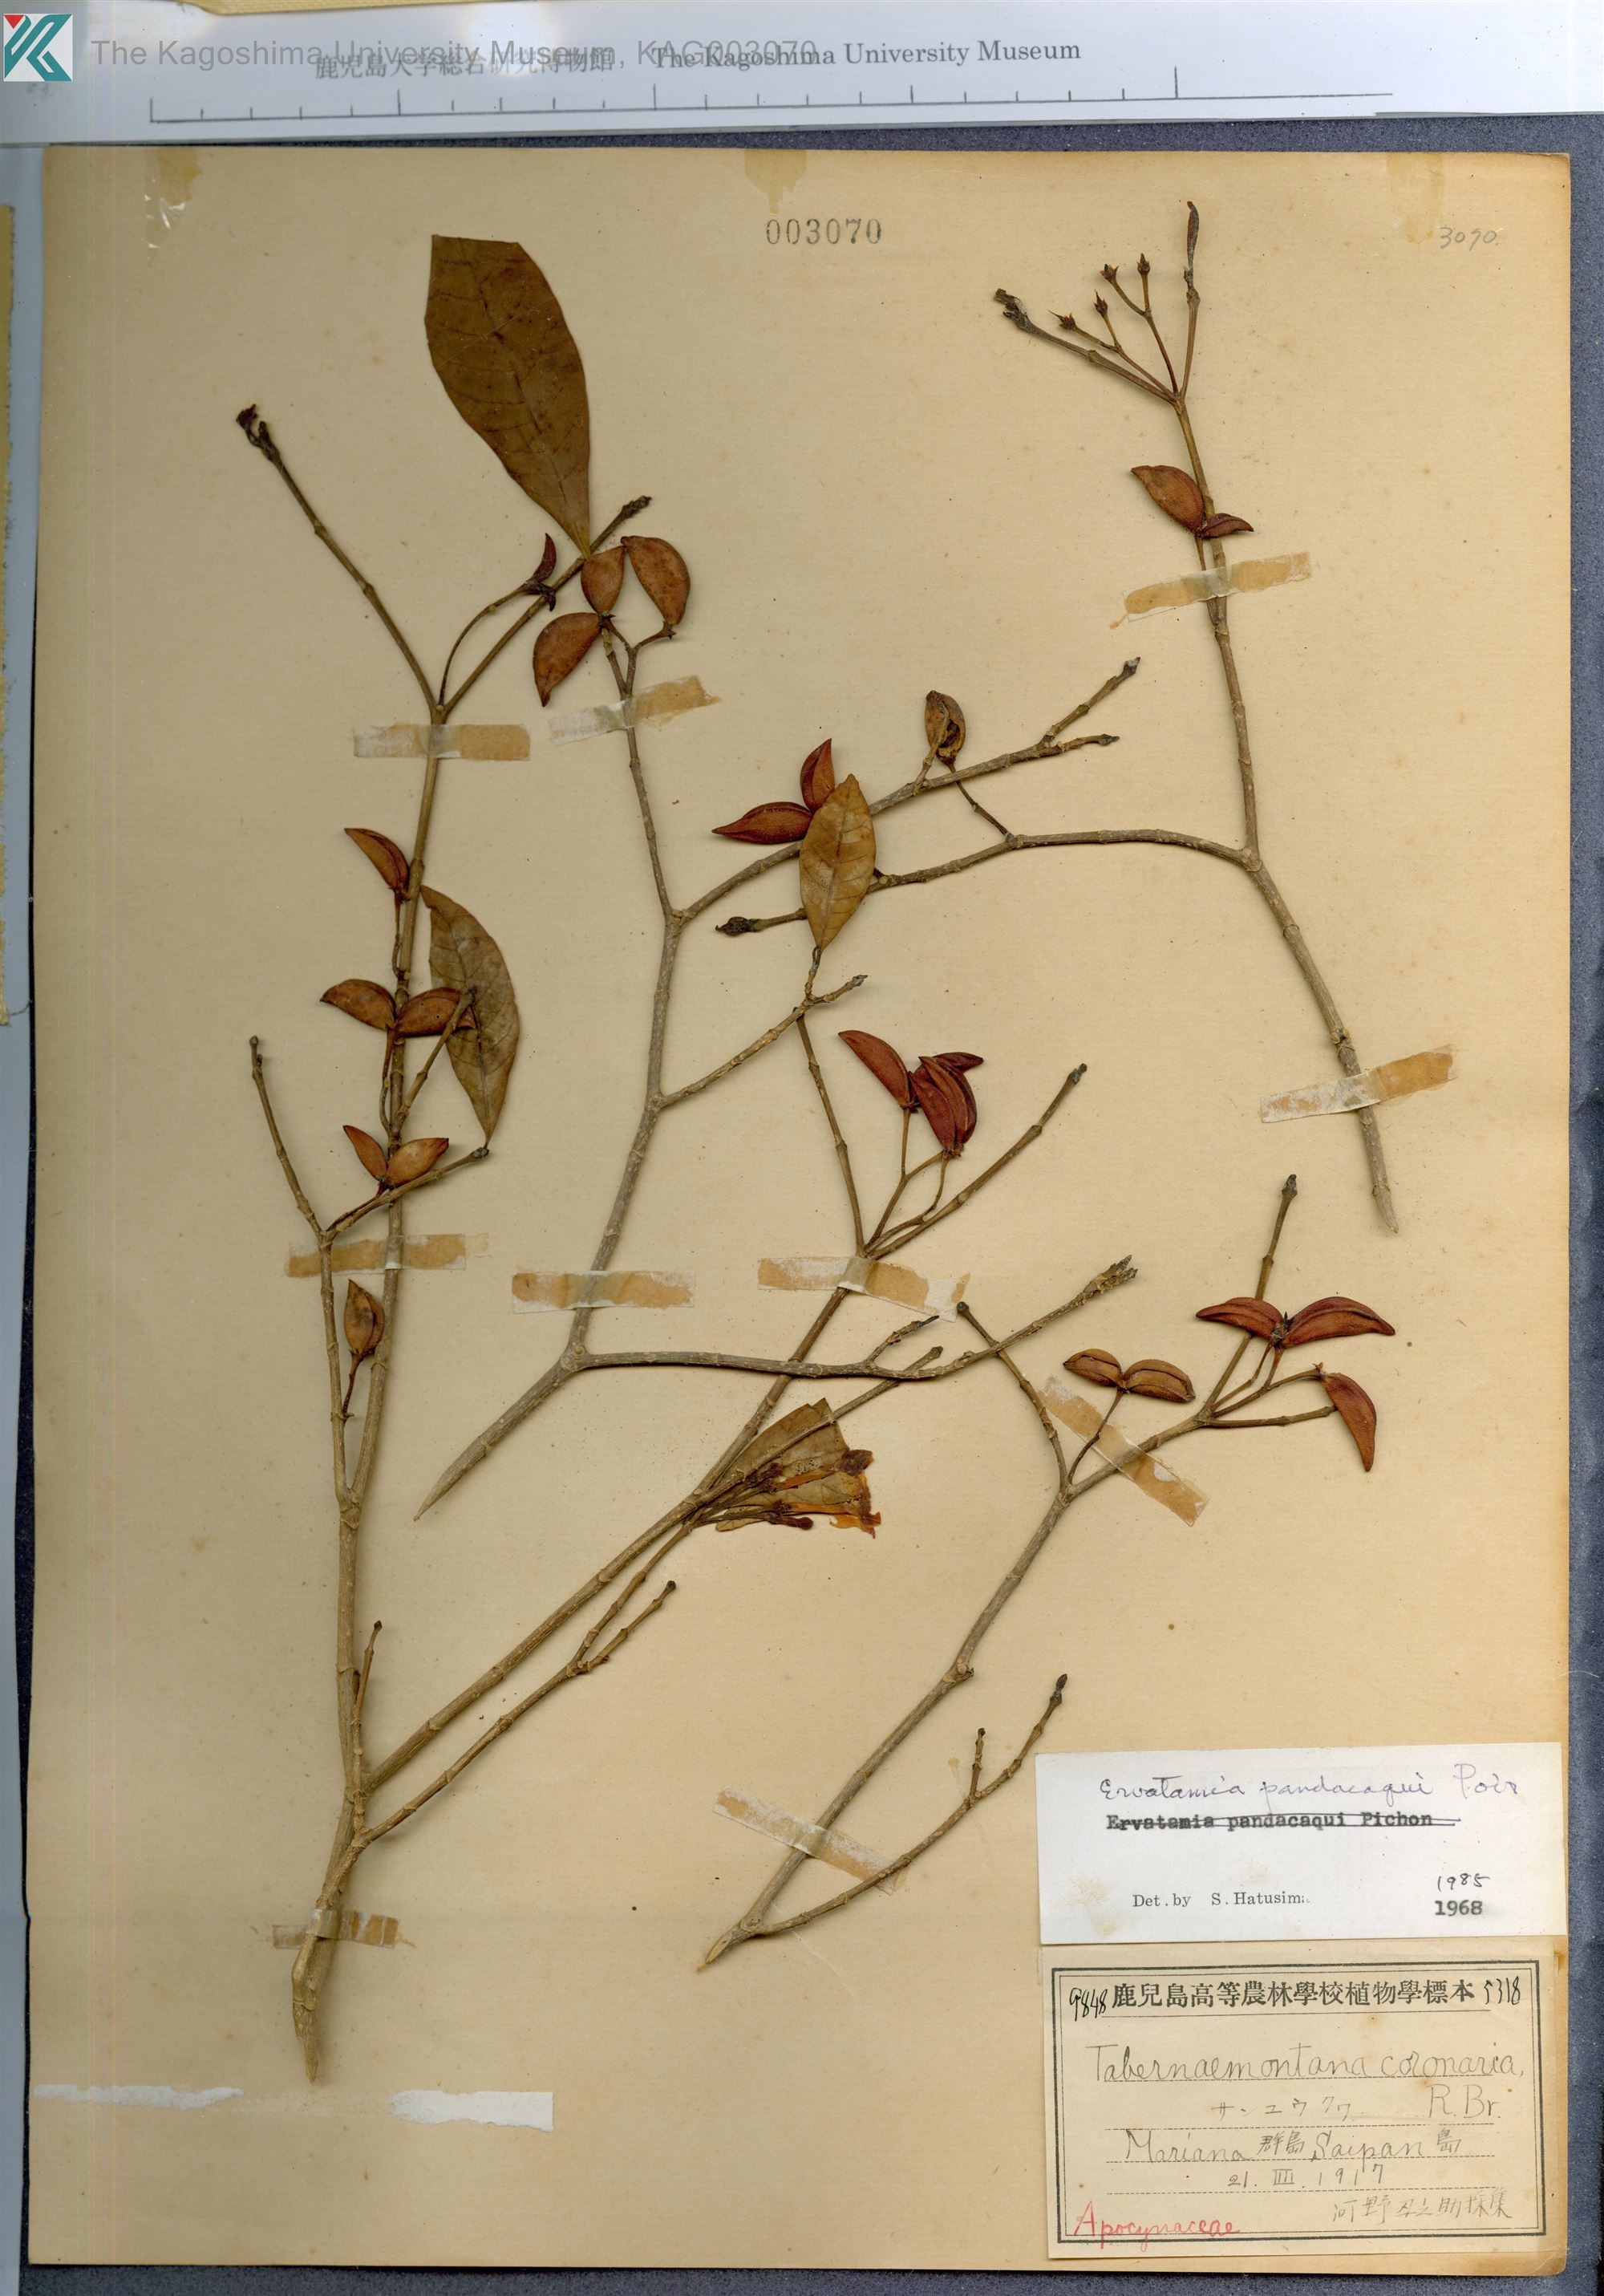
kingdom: Plantae
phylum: Tracheophyta
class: Magnoliopsida
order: Gentianales
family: Apocynaceae
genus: Tabernaemontana
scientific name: Tabernaemontana pandacaqui
